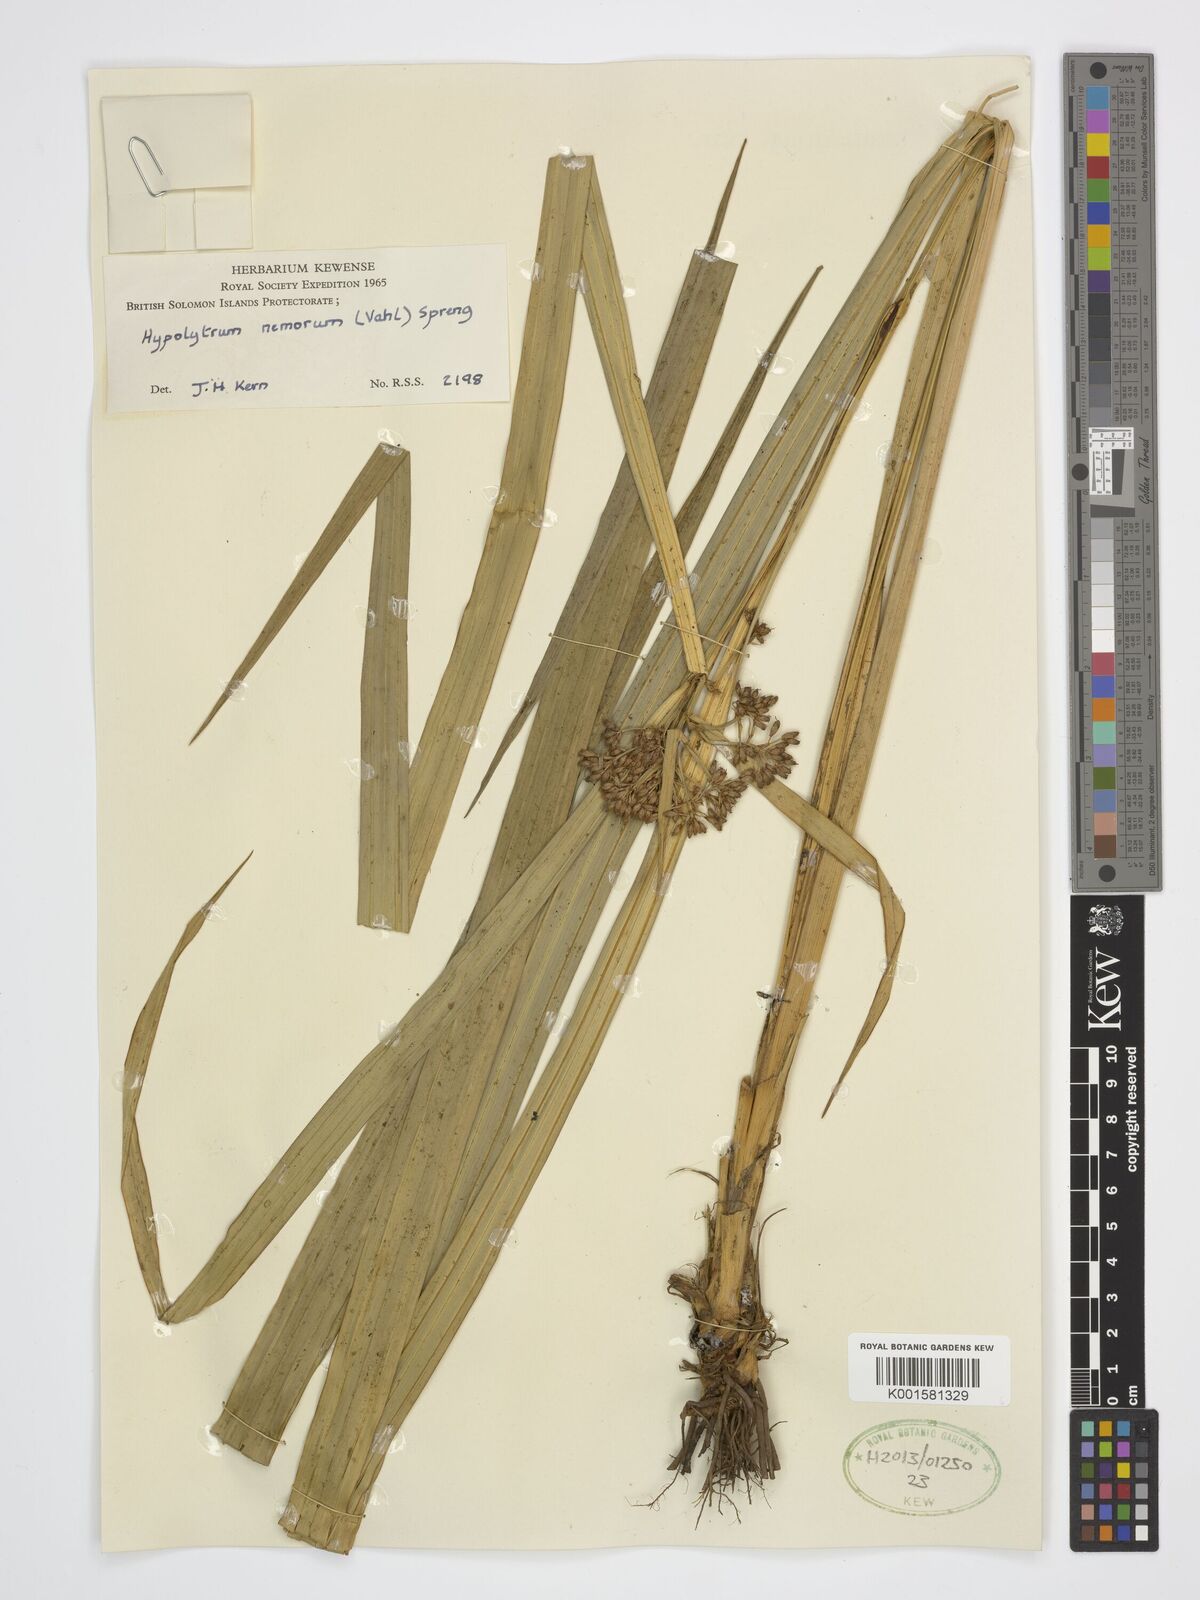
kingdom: Plantae
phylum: Tracheophyta
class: Liliopsida
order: Poales
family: Cyperaceae
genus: Hypolytrum
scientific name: Hypolytrum nemorum
